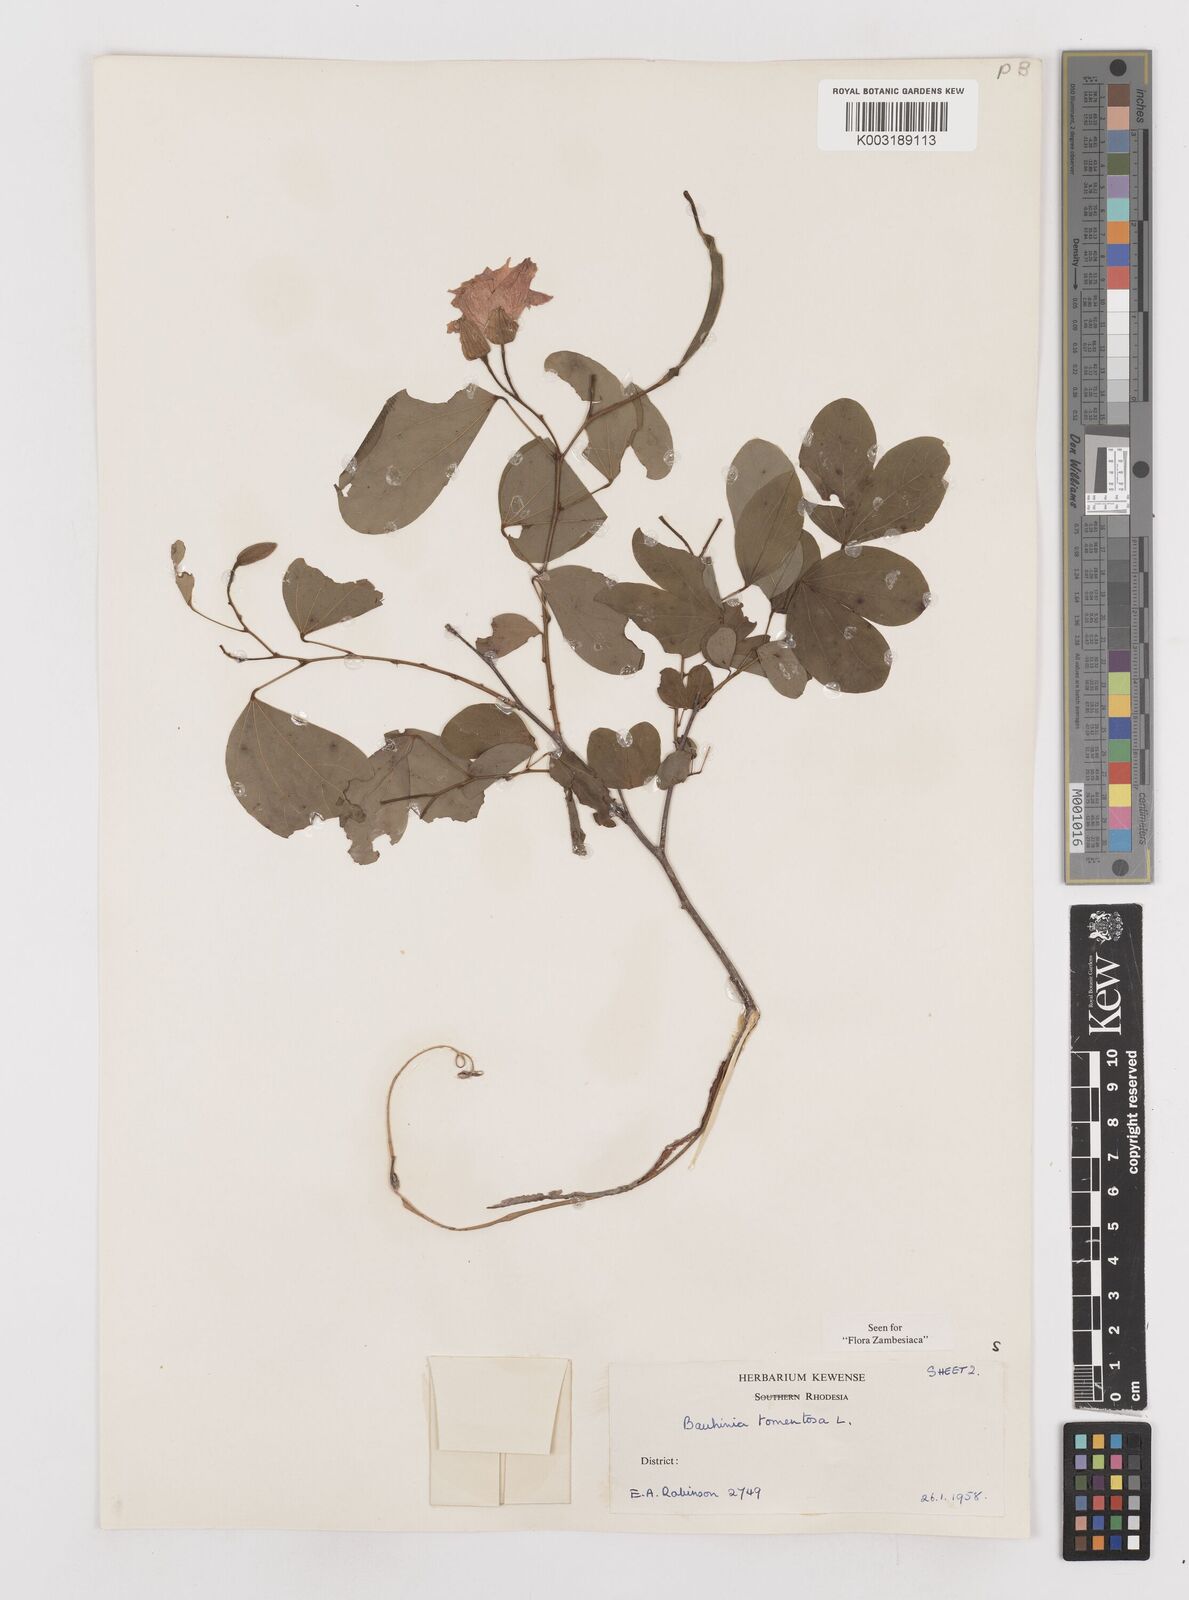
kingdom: Plantae
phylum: Tracheophyta
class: Magnoliopsida
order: Fabales
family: Fabaceae
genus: Bauhinia
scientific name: Bauhinia tomentosa
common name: Bell bauhinia
